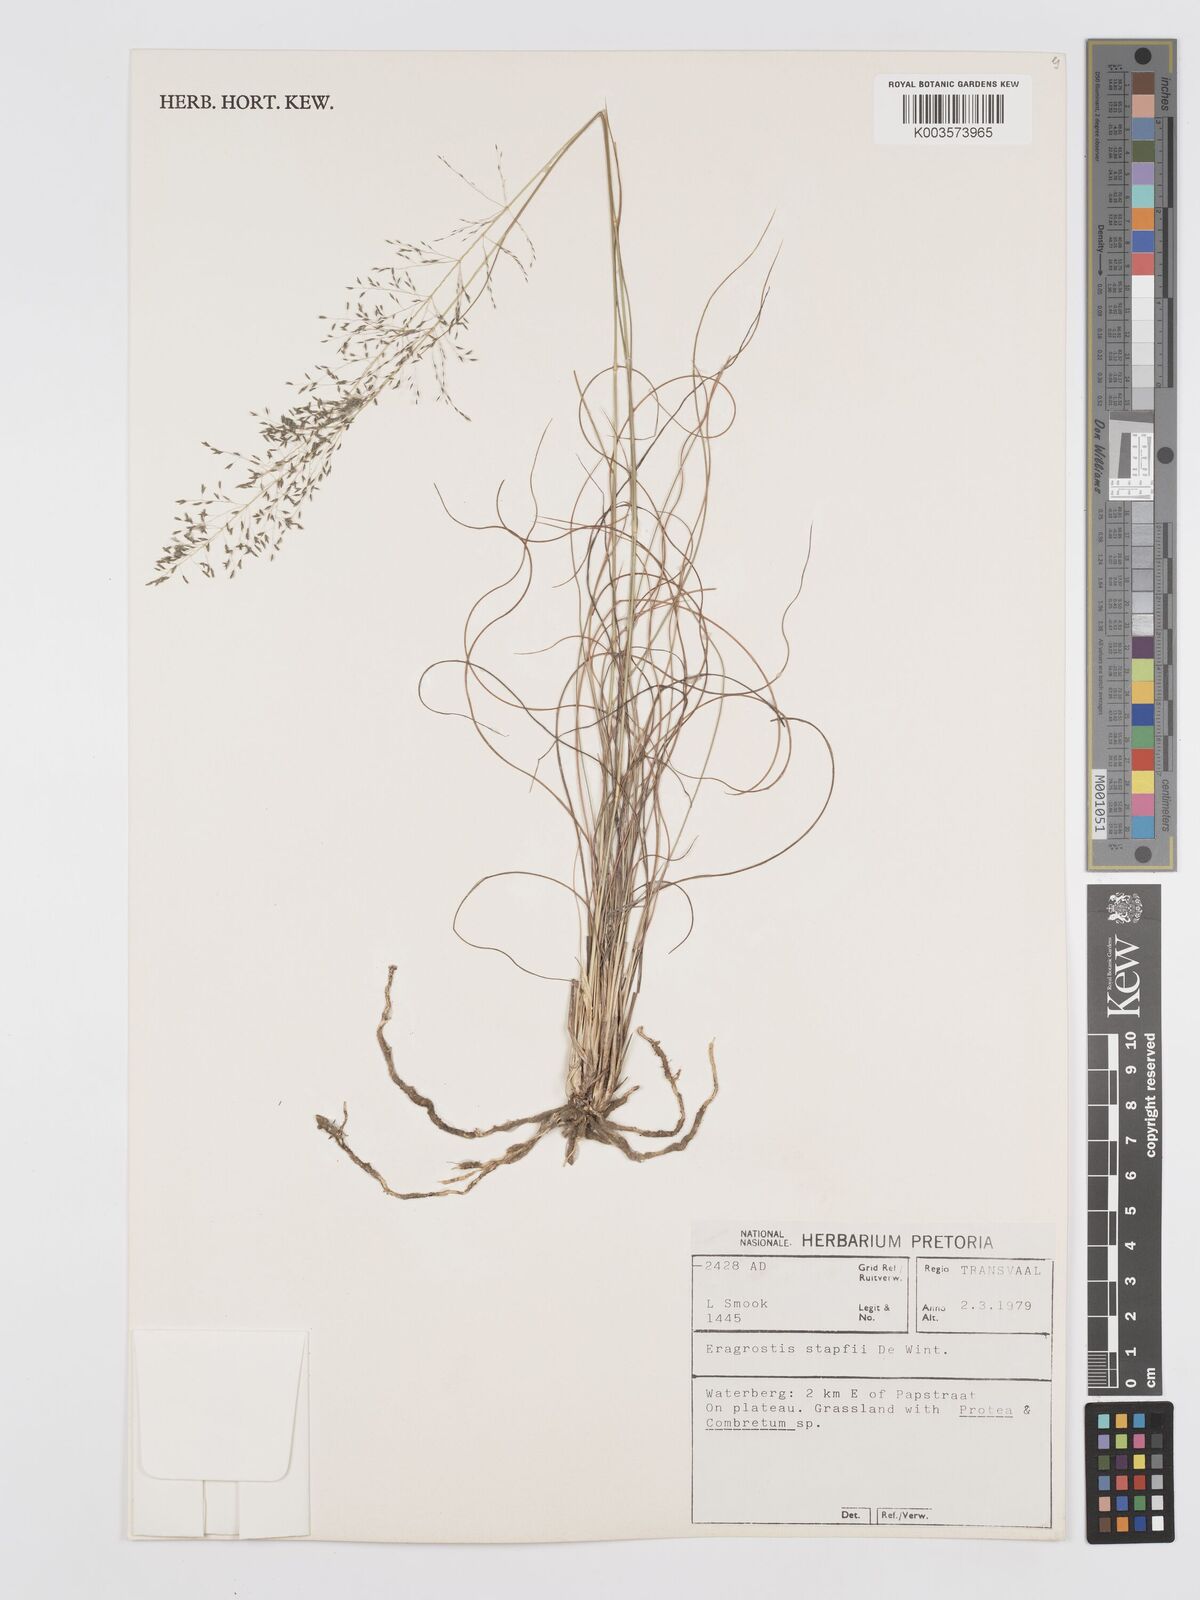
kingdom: Plantae
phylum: Tracheophyta
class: Liliopsida
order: Poales
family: Poaceae
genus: Eragrostis
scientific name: Eragrostis stapfii
